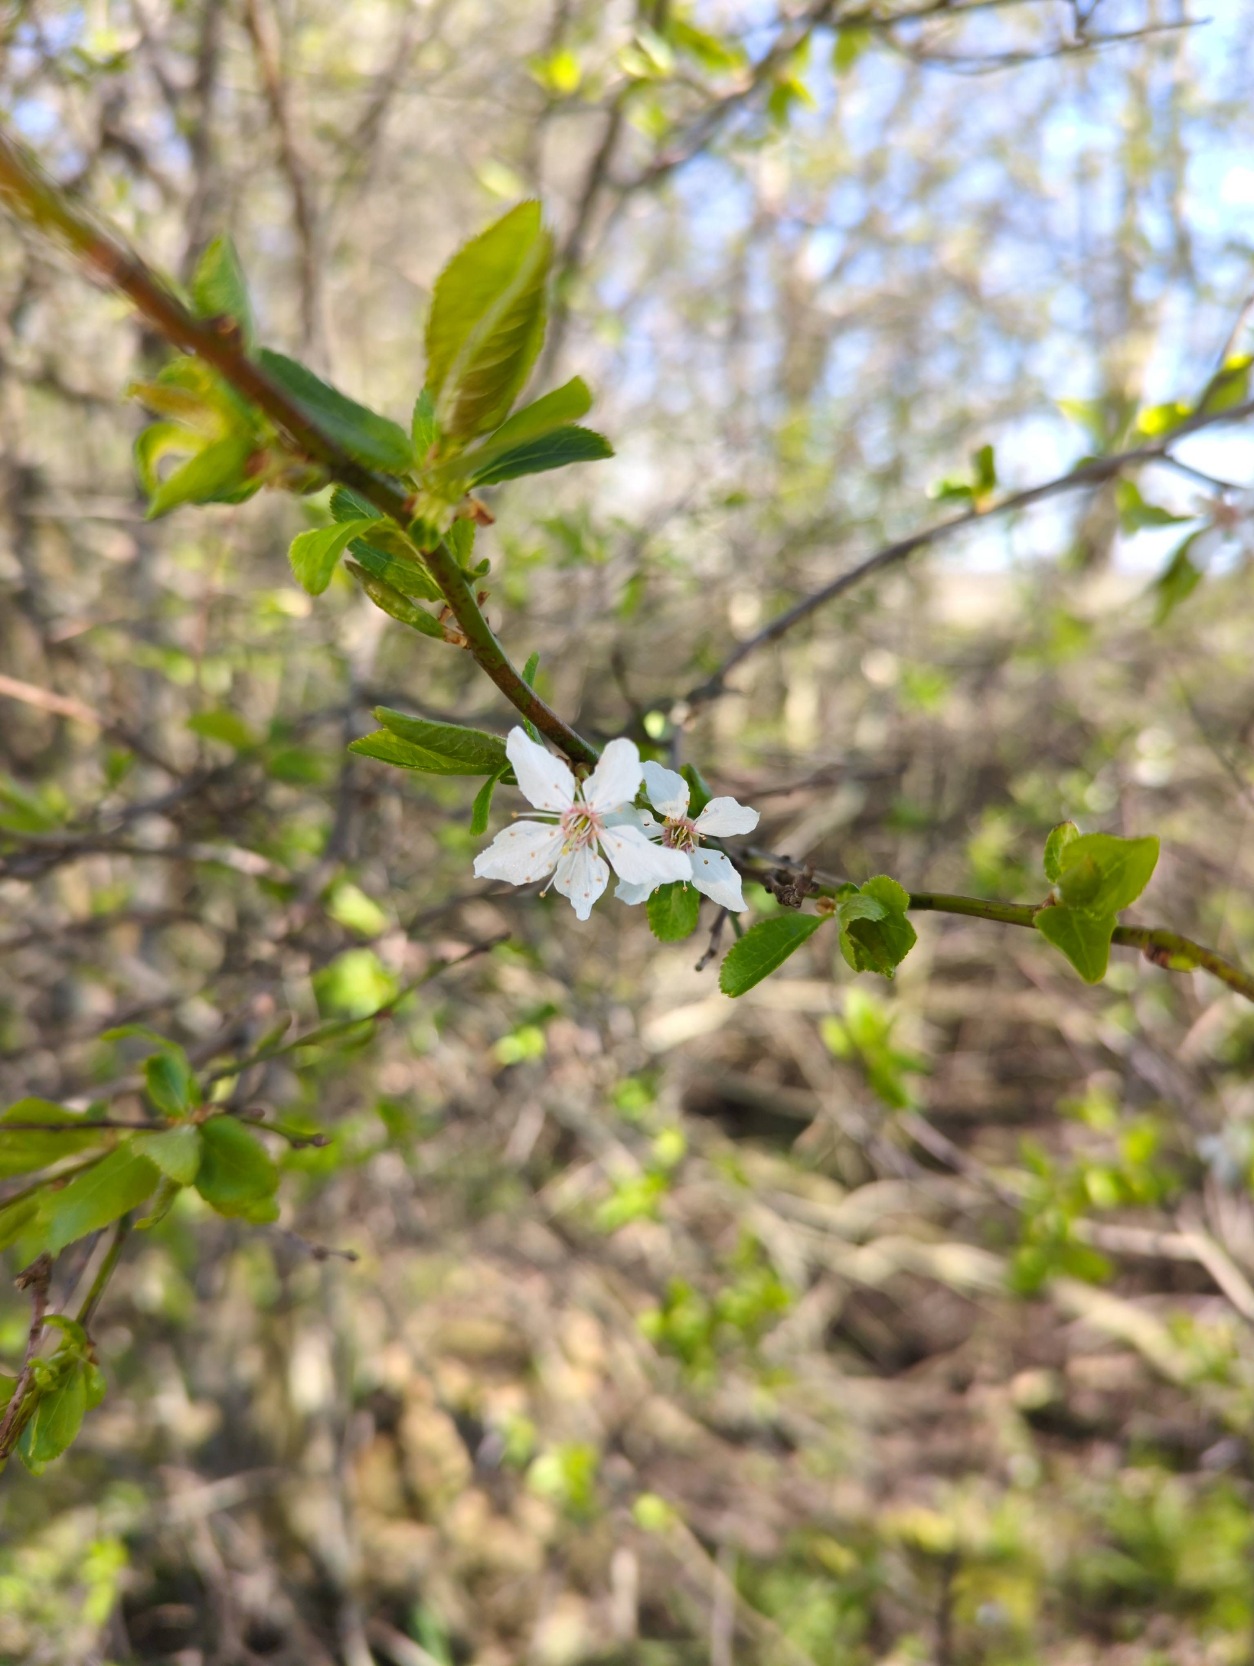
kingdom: Plantae
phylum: Tracheophyta
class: Magnoliopsida
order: Rosales
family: Rosaceae
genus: Prunus
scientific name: Prunus cerasifera
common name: Mirabel
